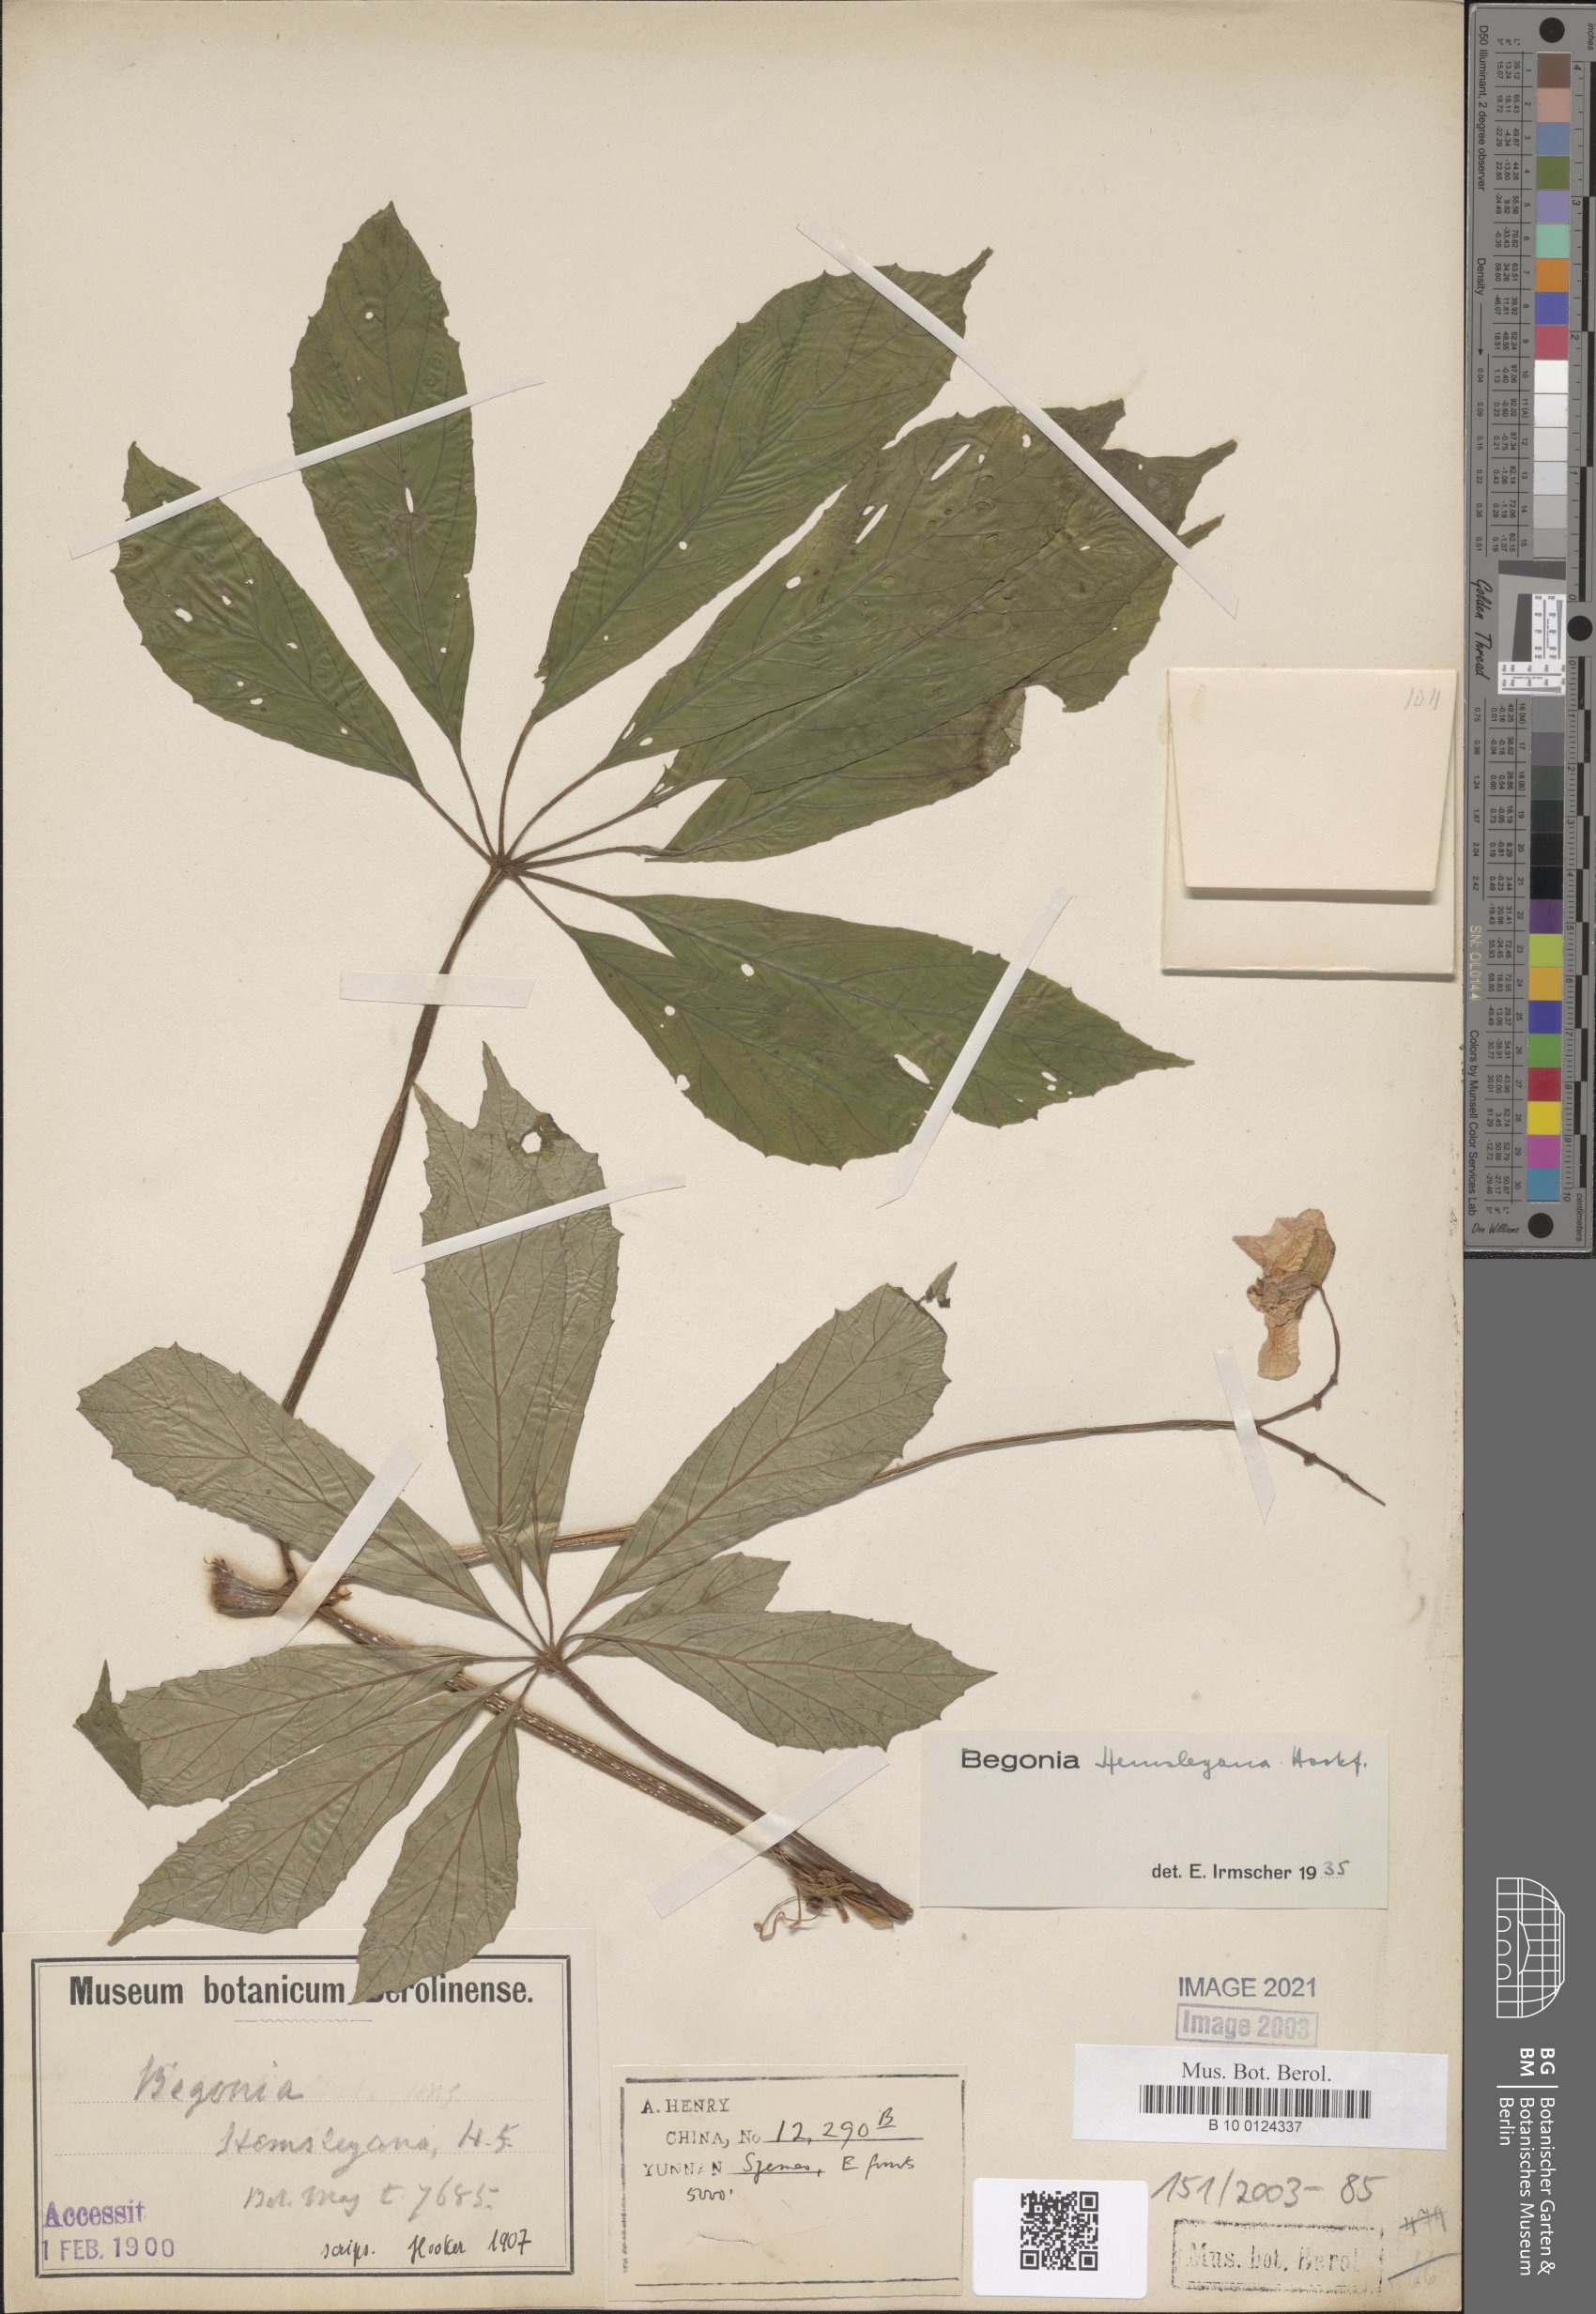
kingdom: Plantae
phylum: Tracheophyta
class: Magnoliopsida
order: Cucurbitales
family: Begoniaceae
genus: Begonia
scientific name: Begonia hemsleyana
